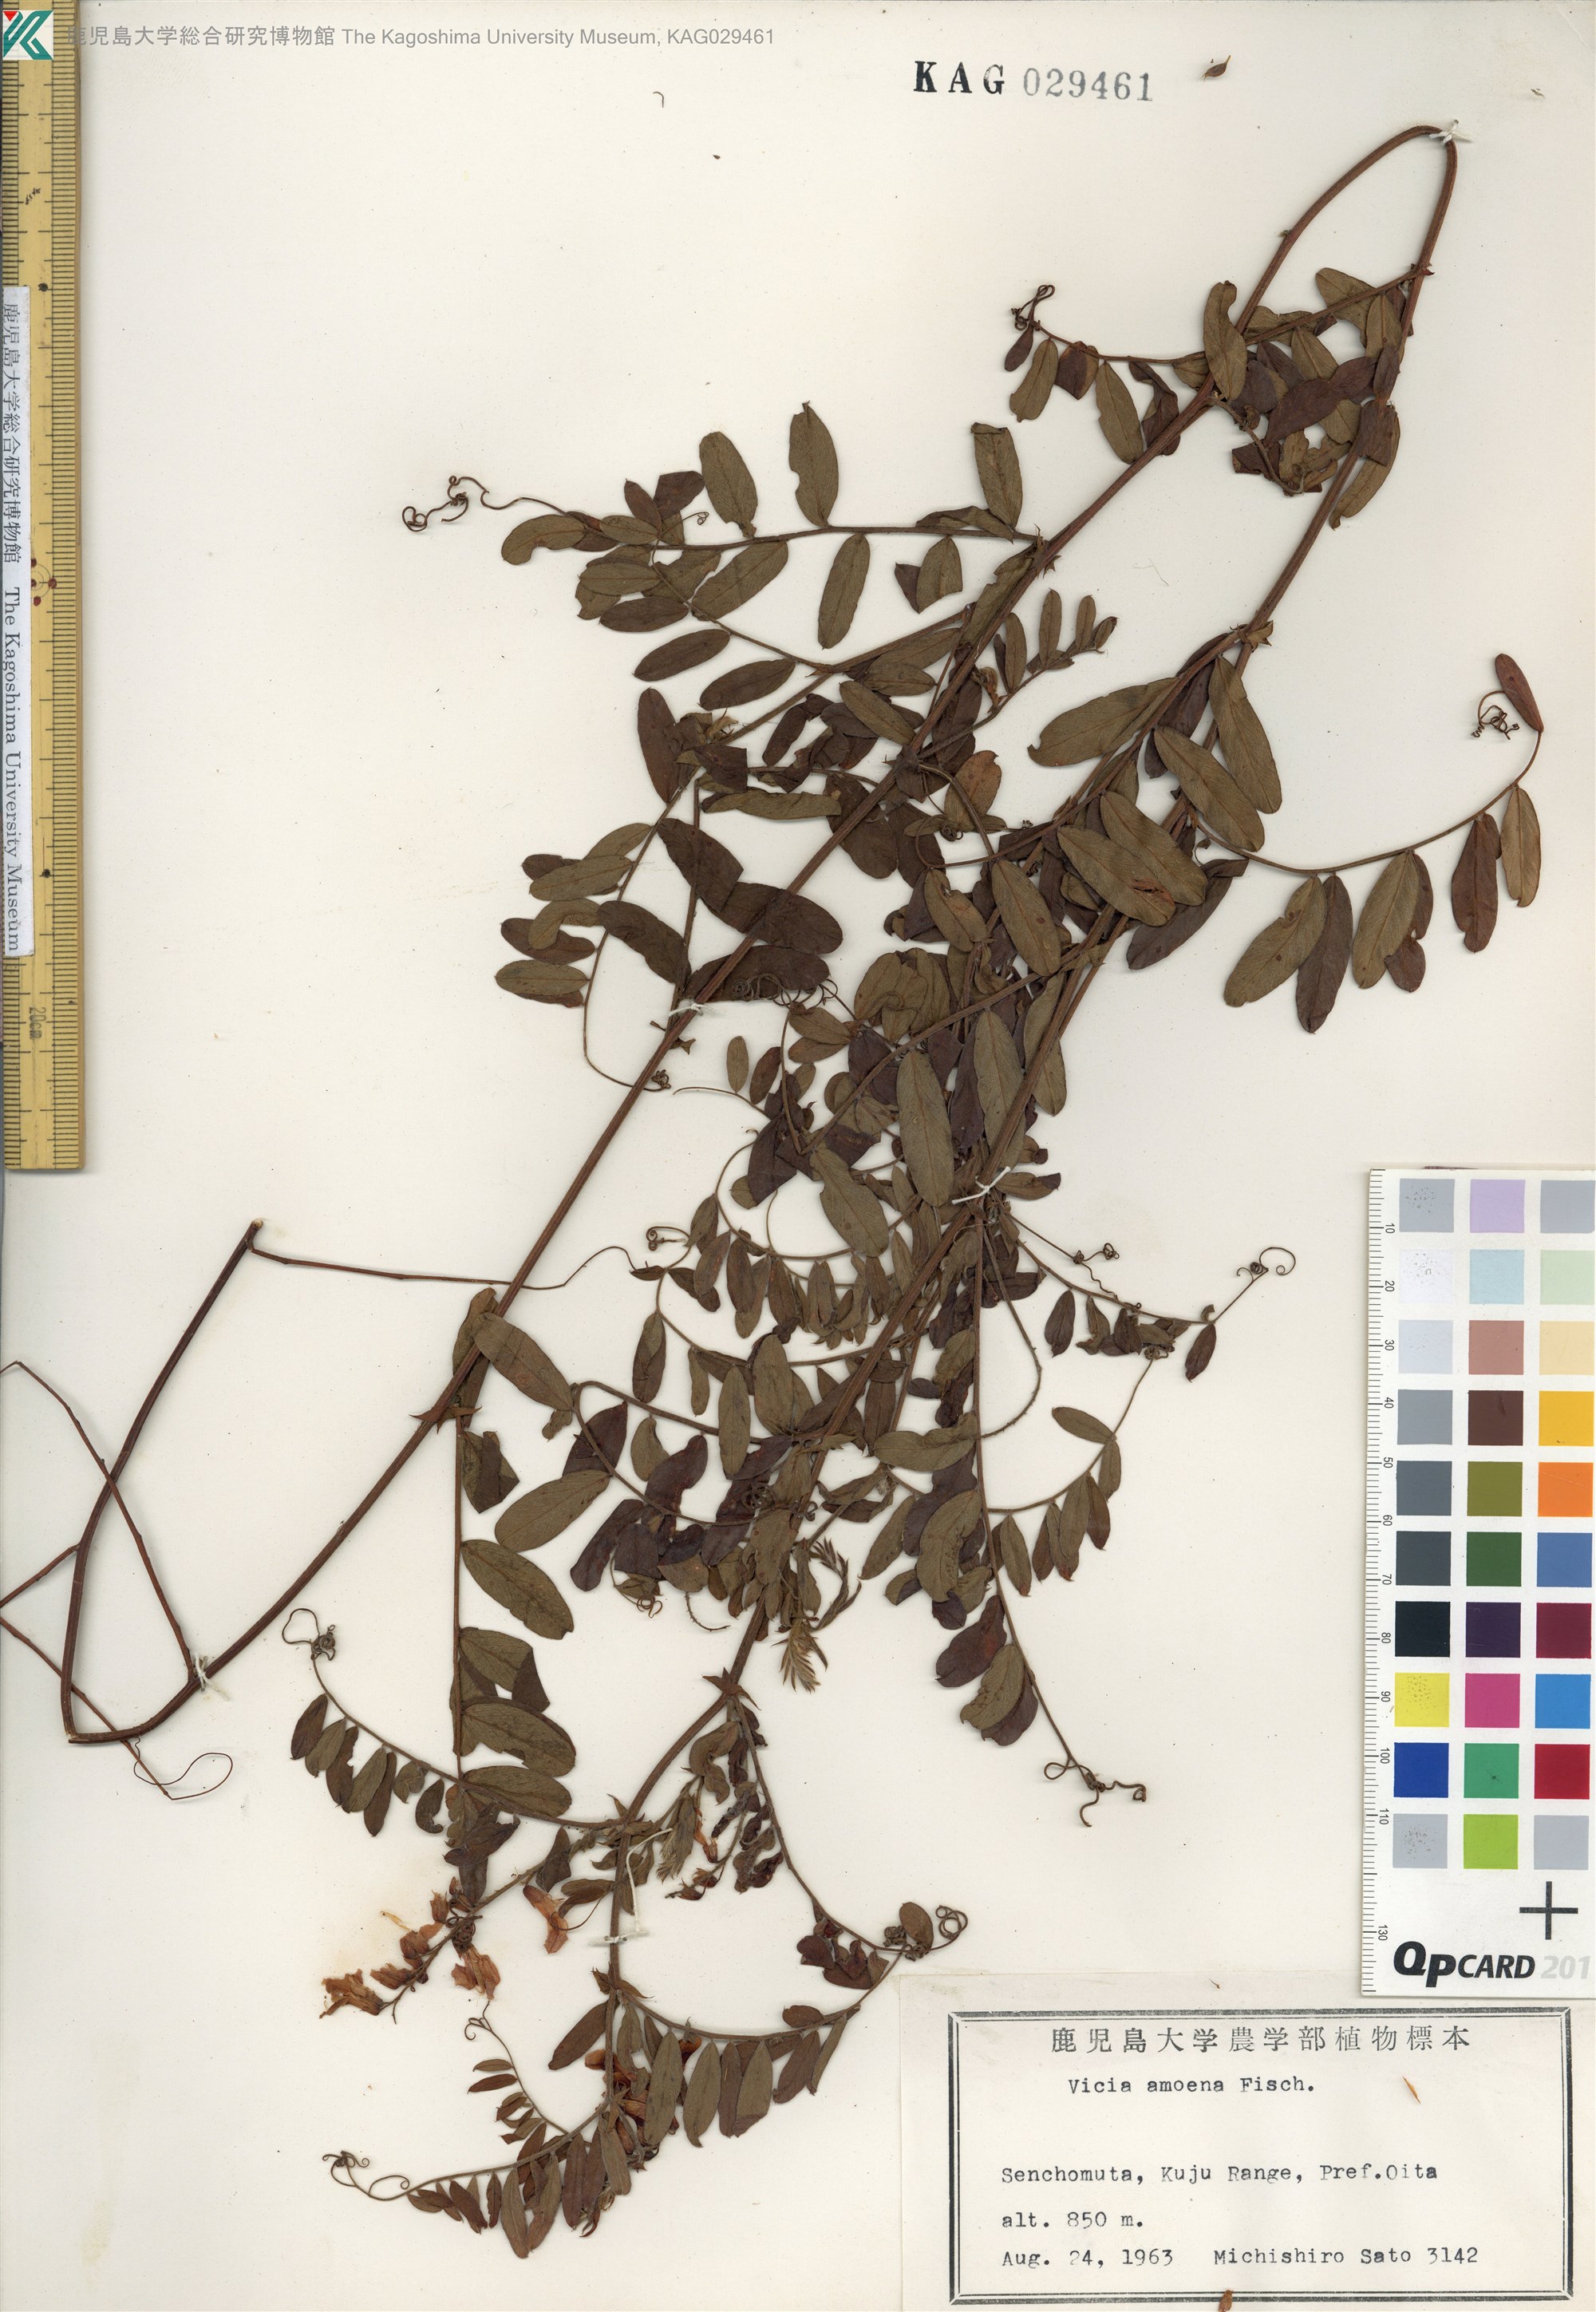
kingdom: Plantae
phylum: Tracheophyta
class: Magnoliopsida
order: Fabales
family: Fabaceae
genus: Vicia
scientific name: Vicia amoena
